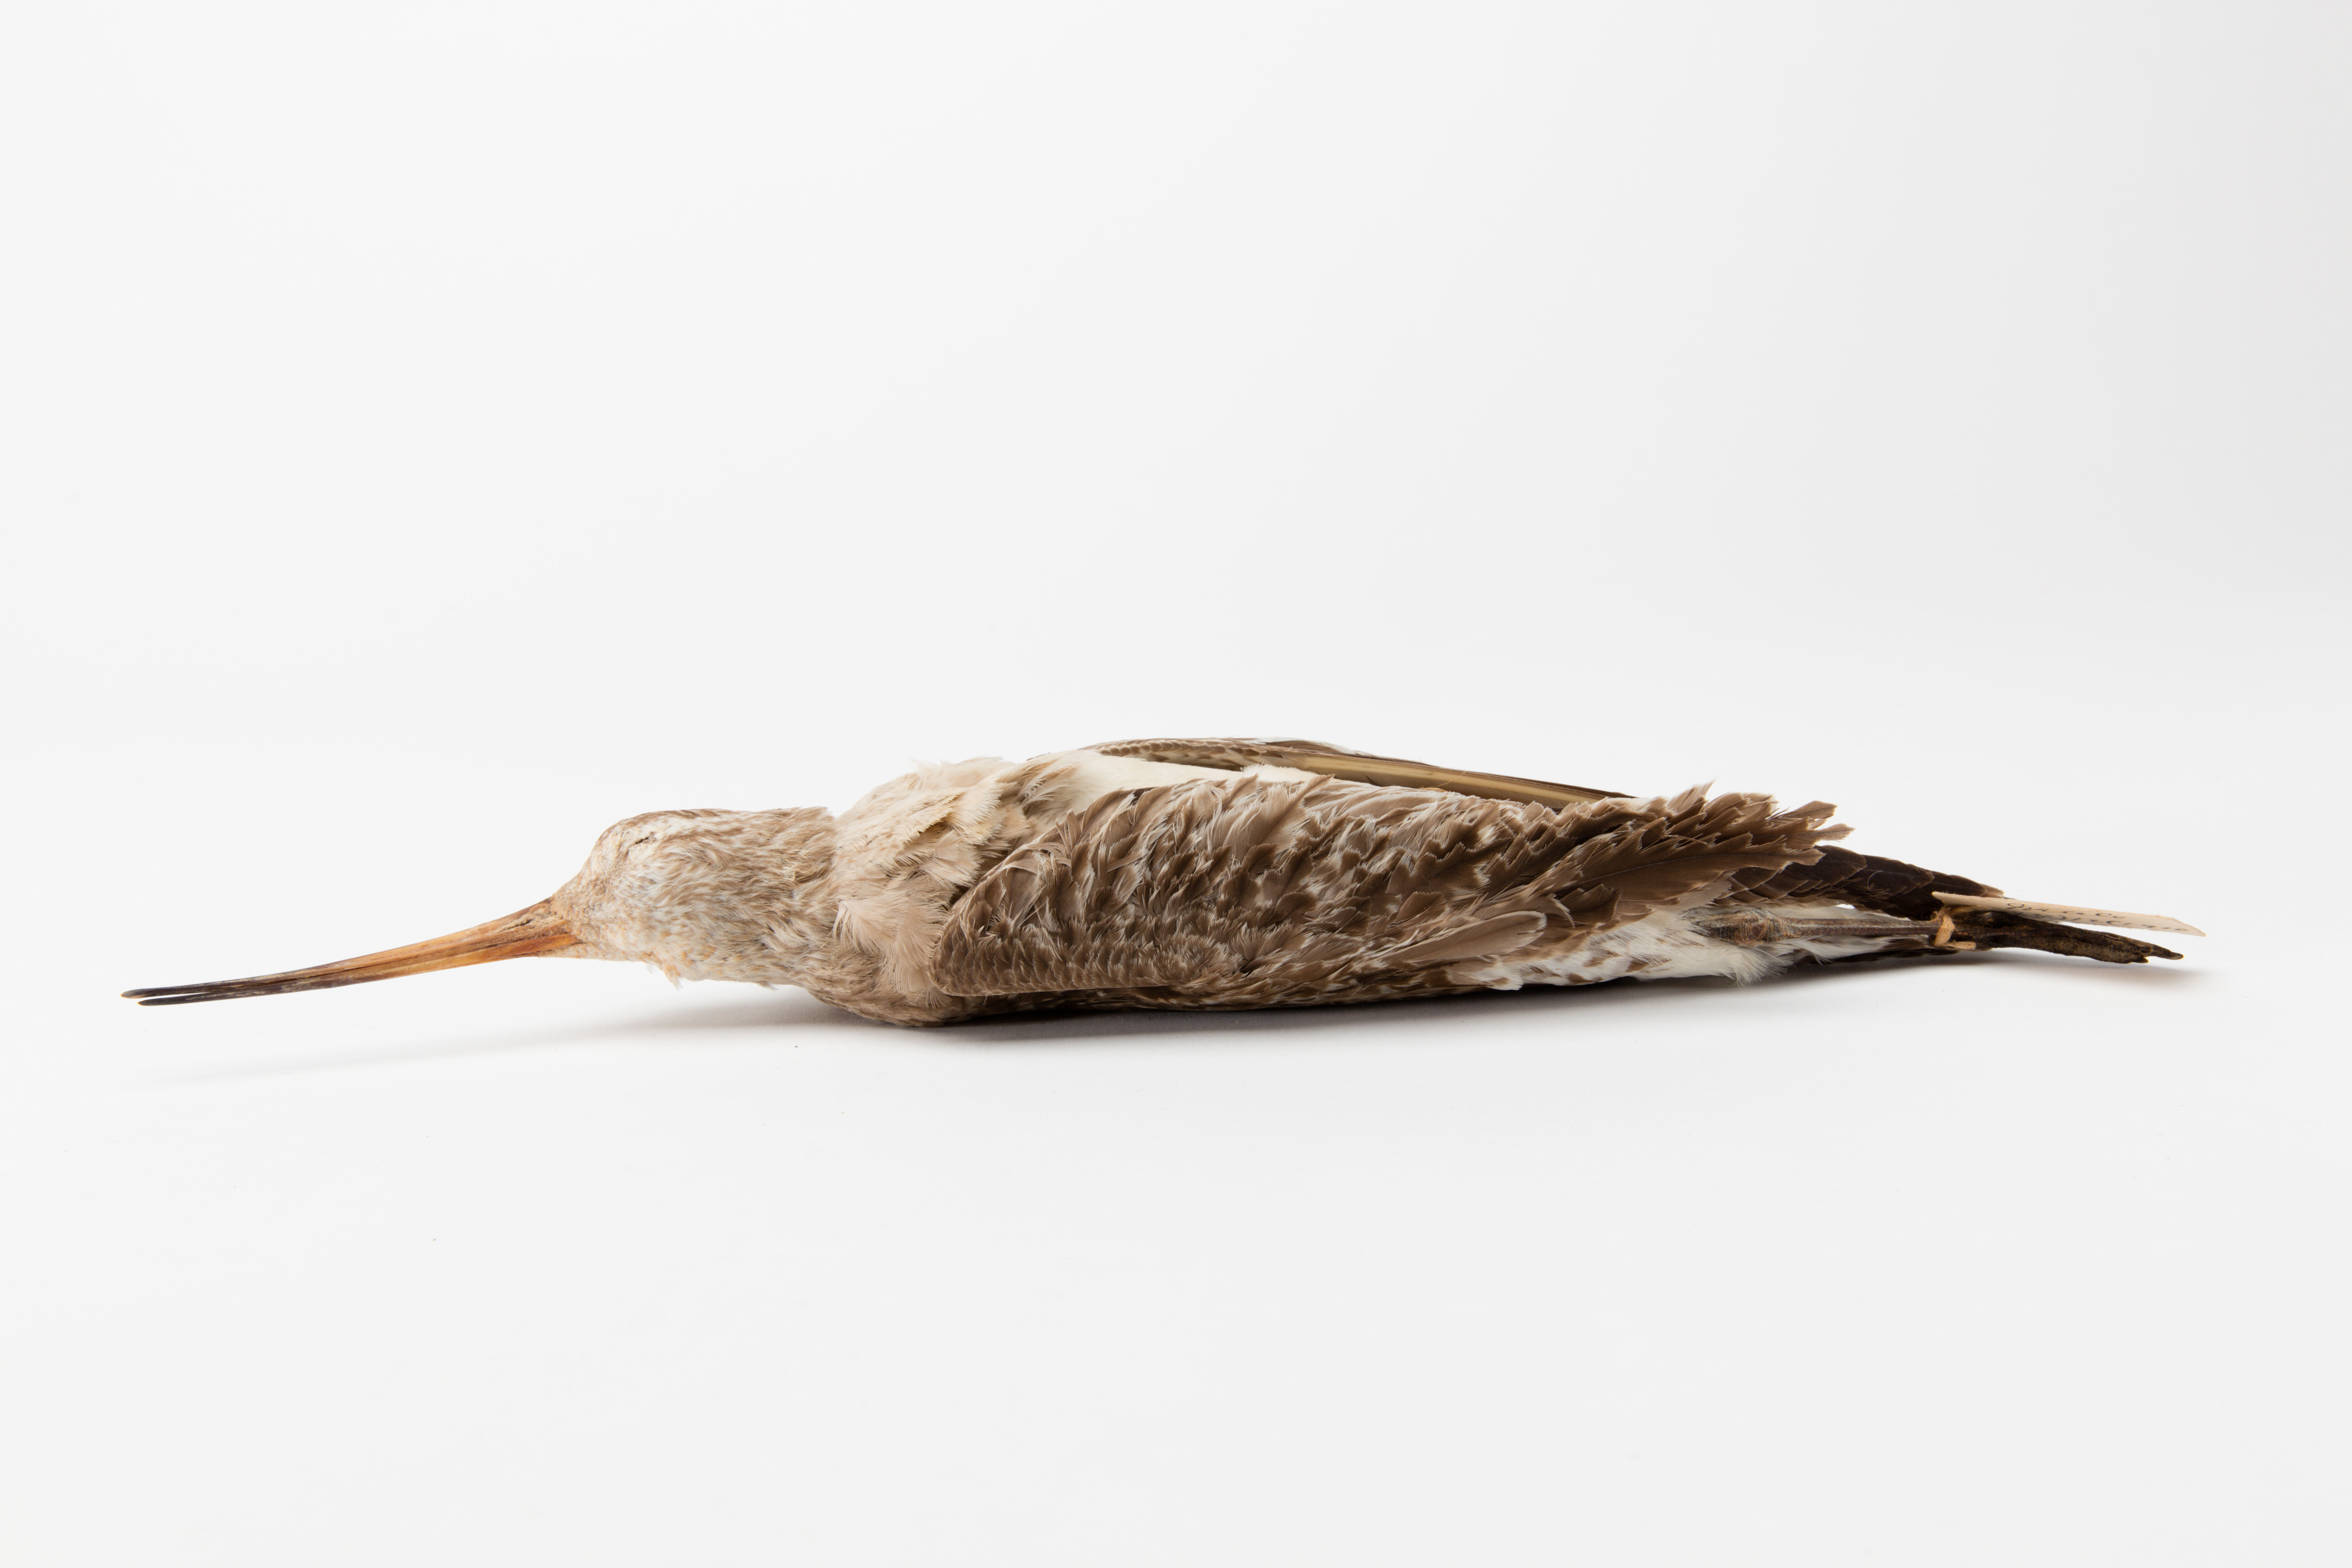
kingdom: Animalia
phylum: Chordata
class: Aves
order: Charadriiformes
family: Scolopacidae
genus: Limosa
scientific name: Limosa lapponica
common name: Bar-tailed godwit
